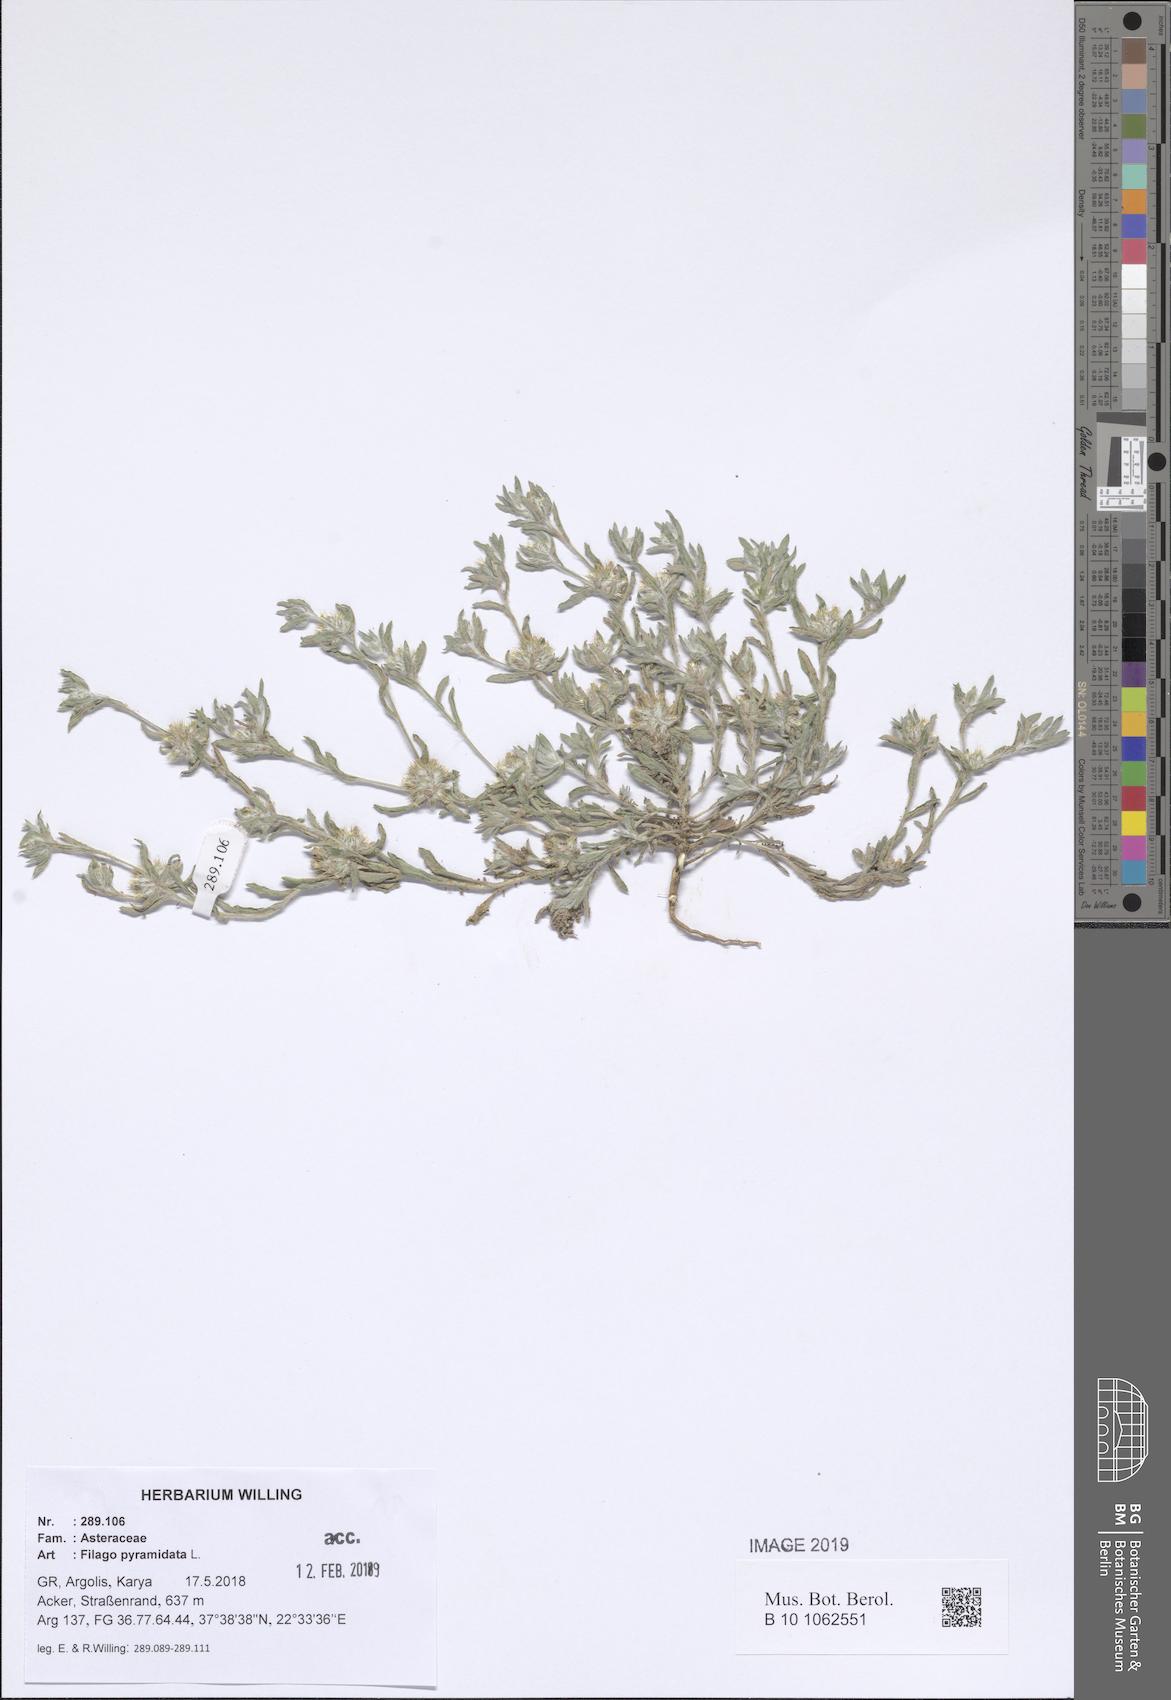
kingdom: Plantae
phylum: Tracheophyta
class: Magnoliopsida
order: Asterales
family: Asteraceae
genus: Filago
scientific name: Filago pyramidata
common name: Broad-leaved cudweed
